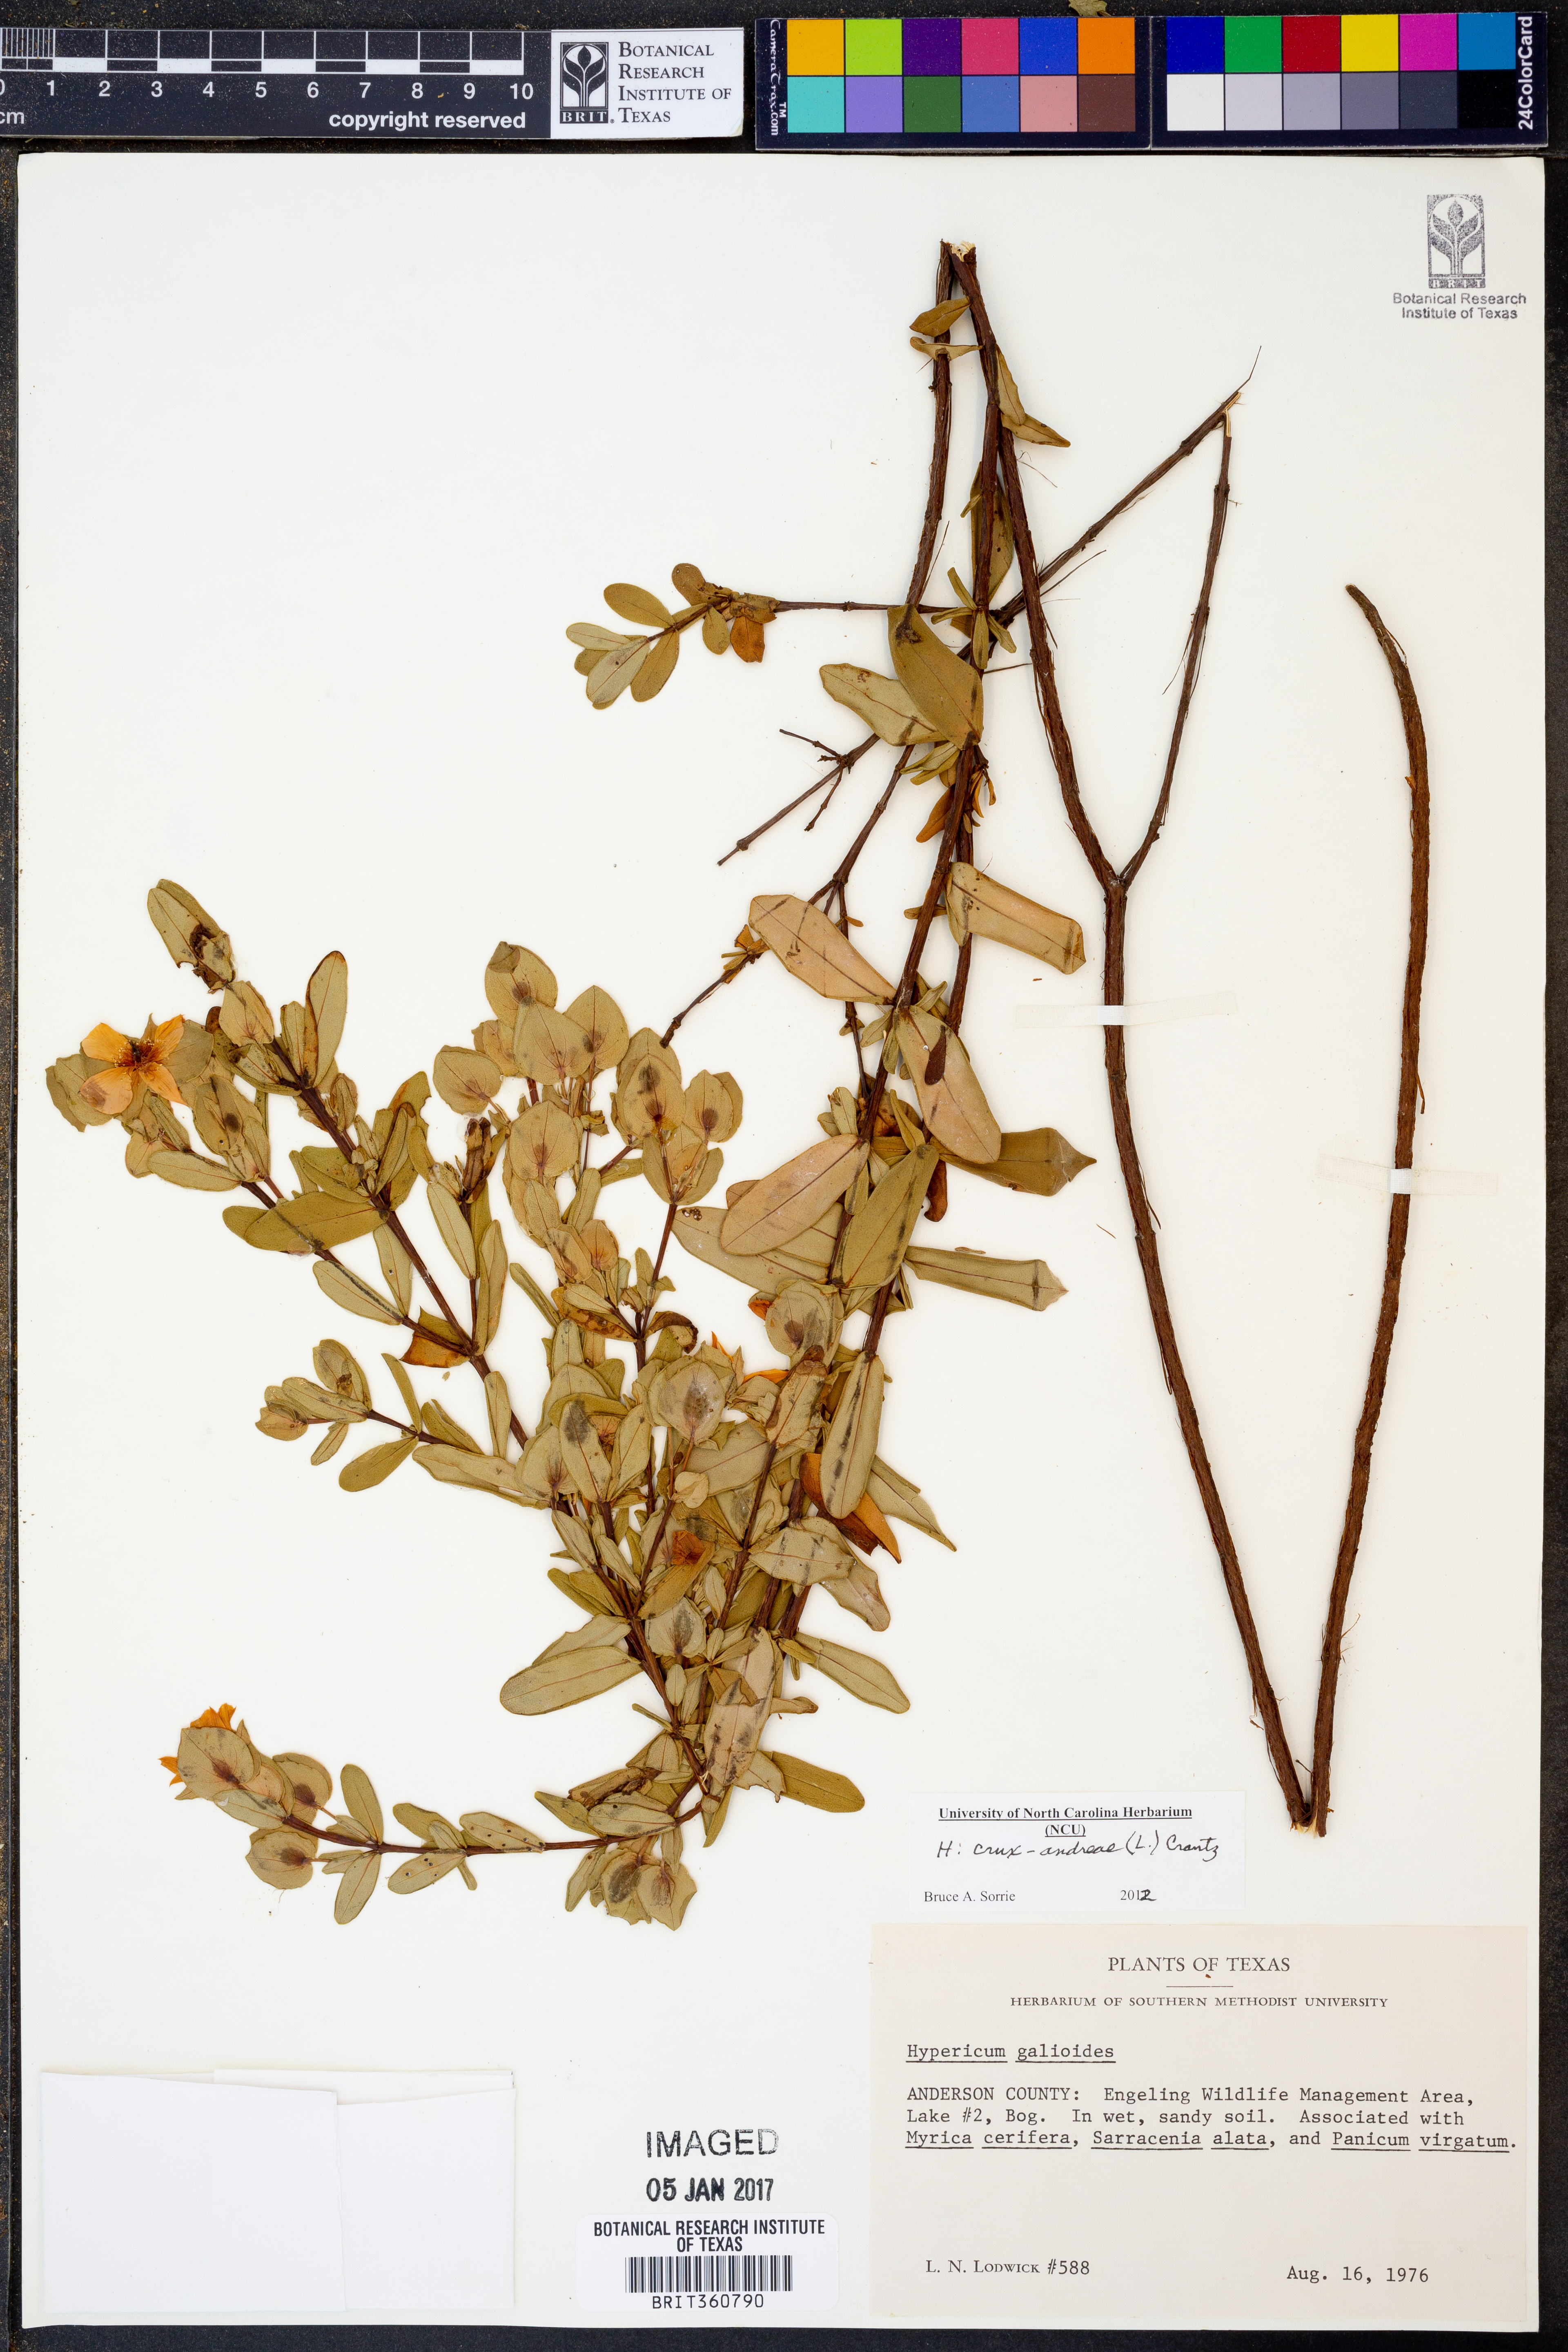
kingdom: Plantae
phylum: Tracheophyta
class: Magnoliopsida
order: Malpighiales
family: Hypericaceae
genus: Hypericum
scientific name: Hypericum crux-andreae
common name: St.-peter's-wort
